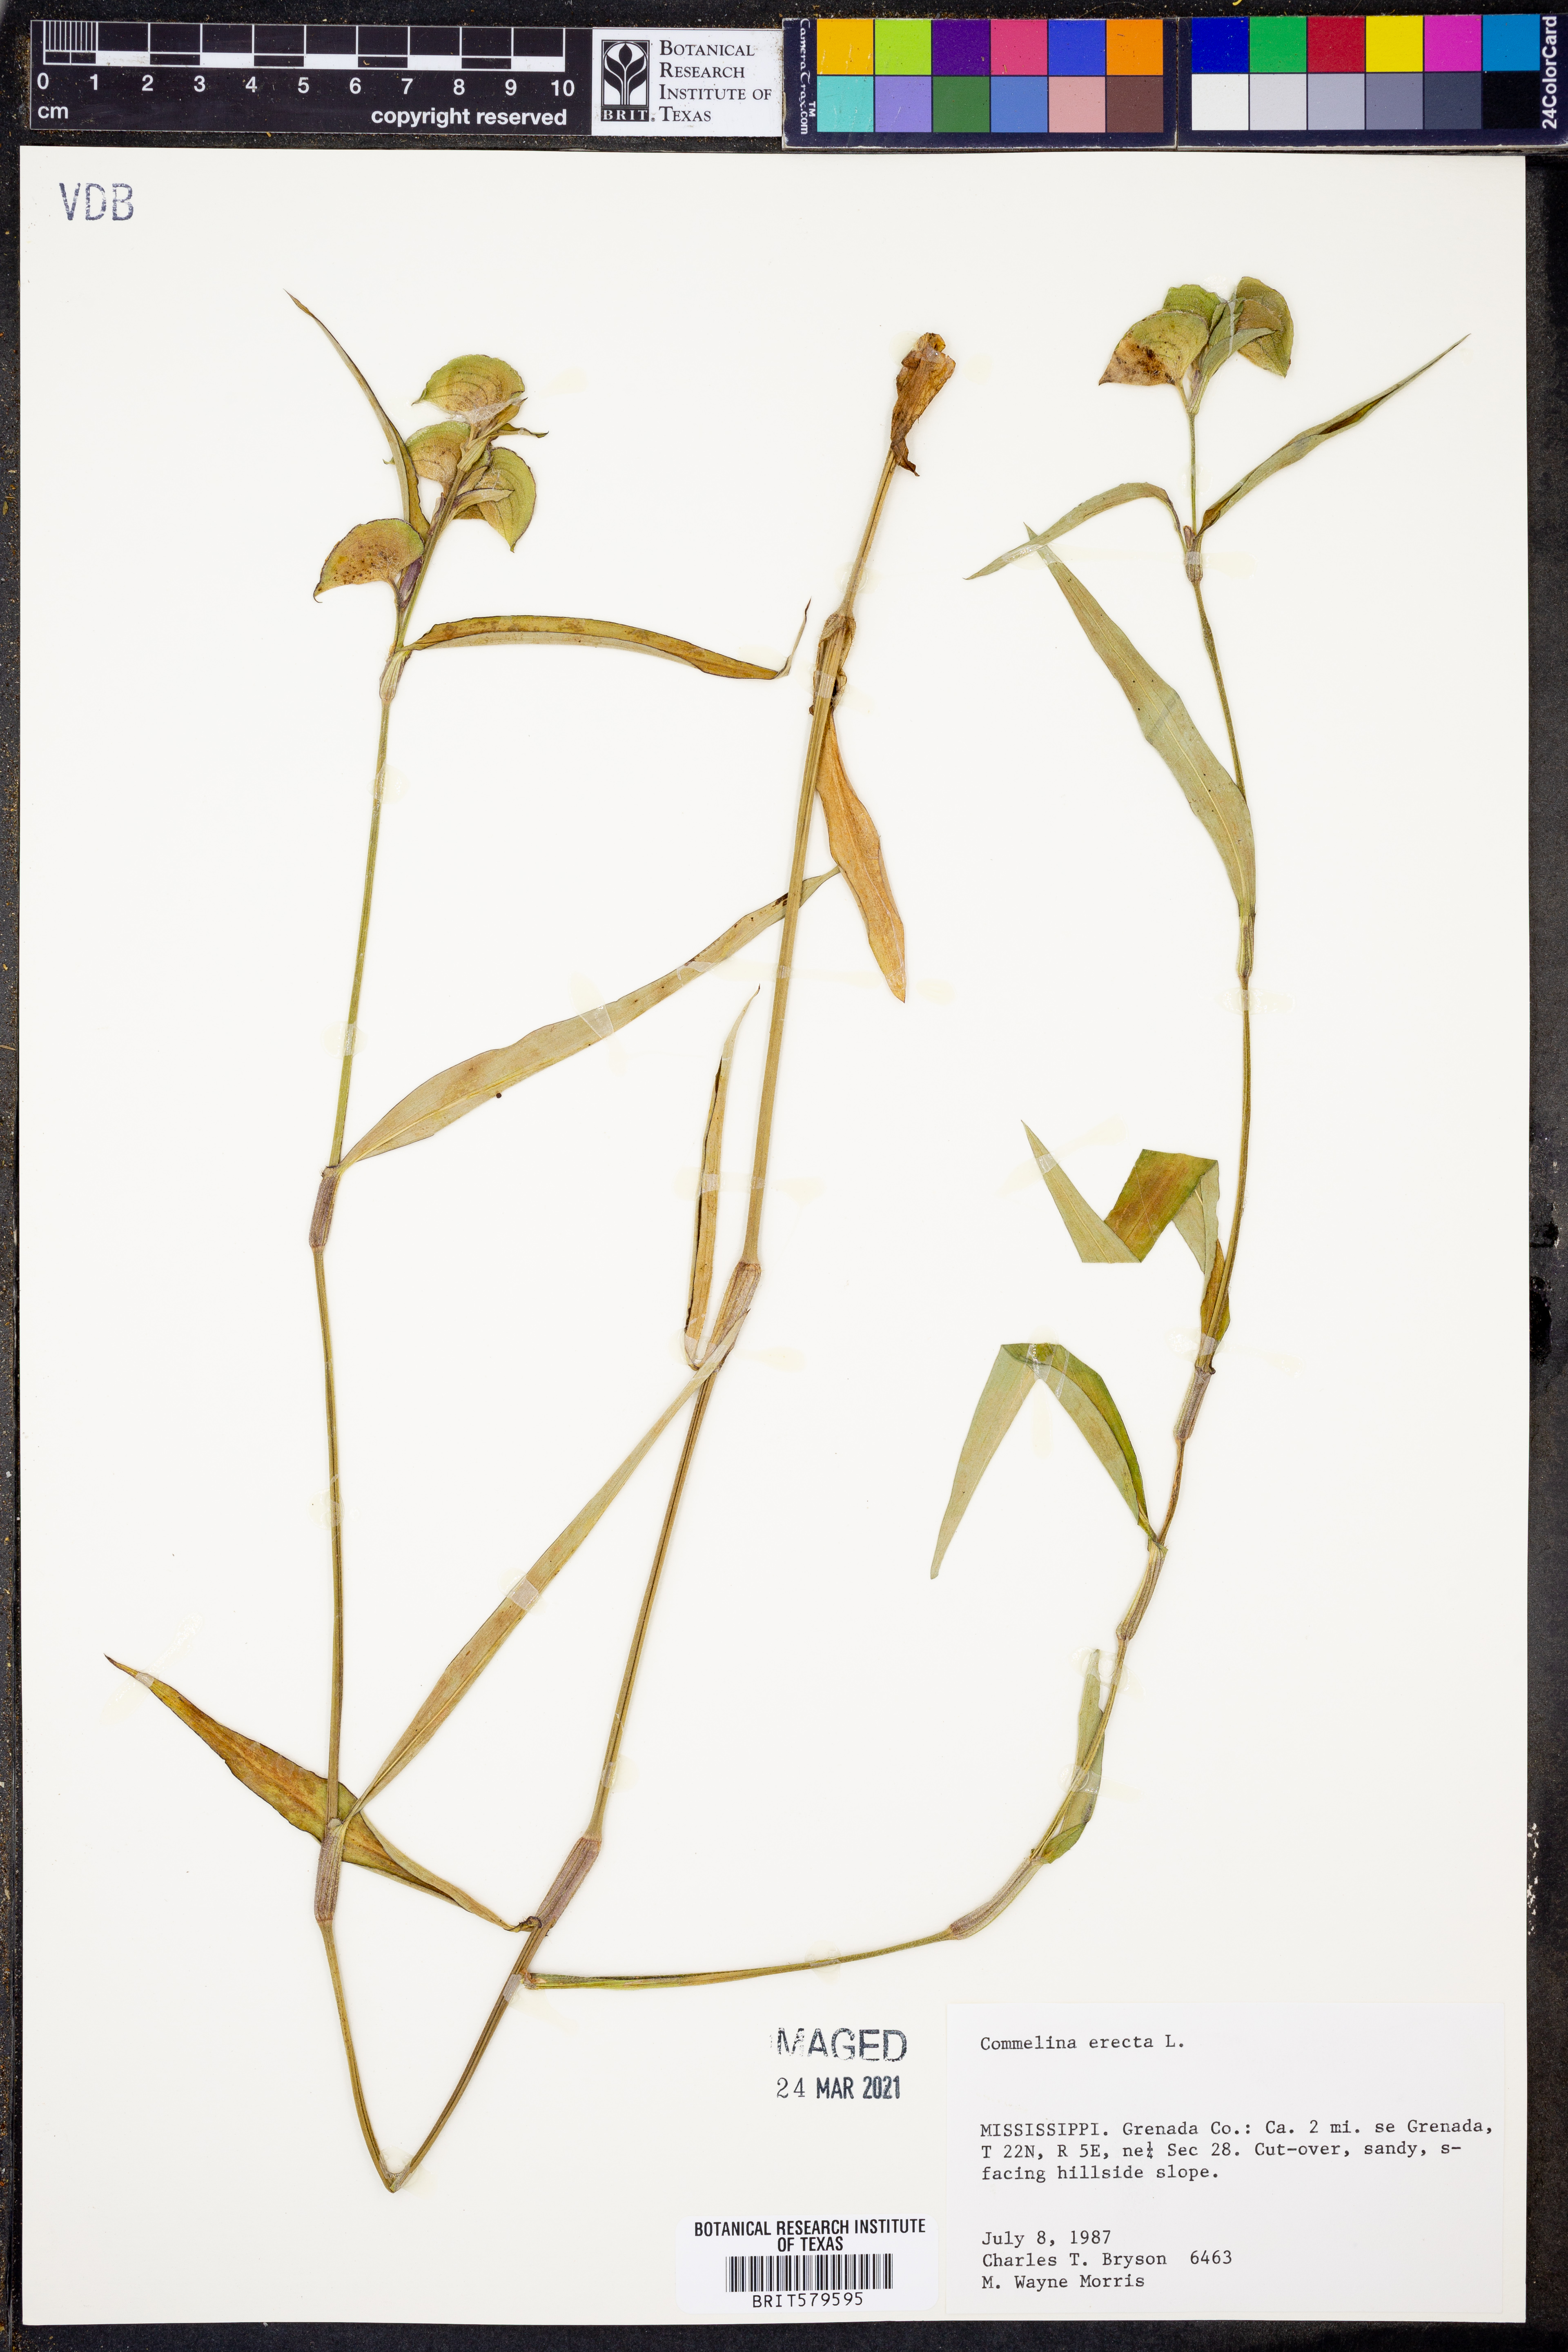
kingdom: Plantae
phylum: Tracheophyta
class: Liliopsida
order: Commelinales
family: Commelinaceae
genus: Commelina
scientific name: Commelina erecta
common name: Blousel blommetjie
